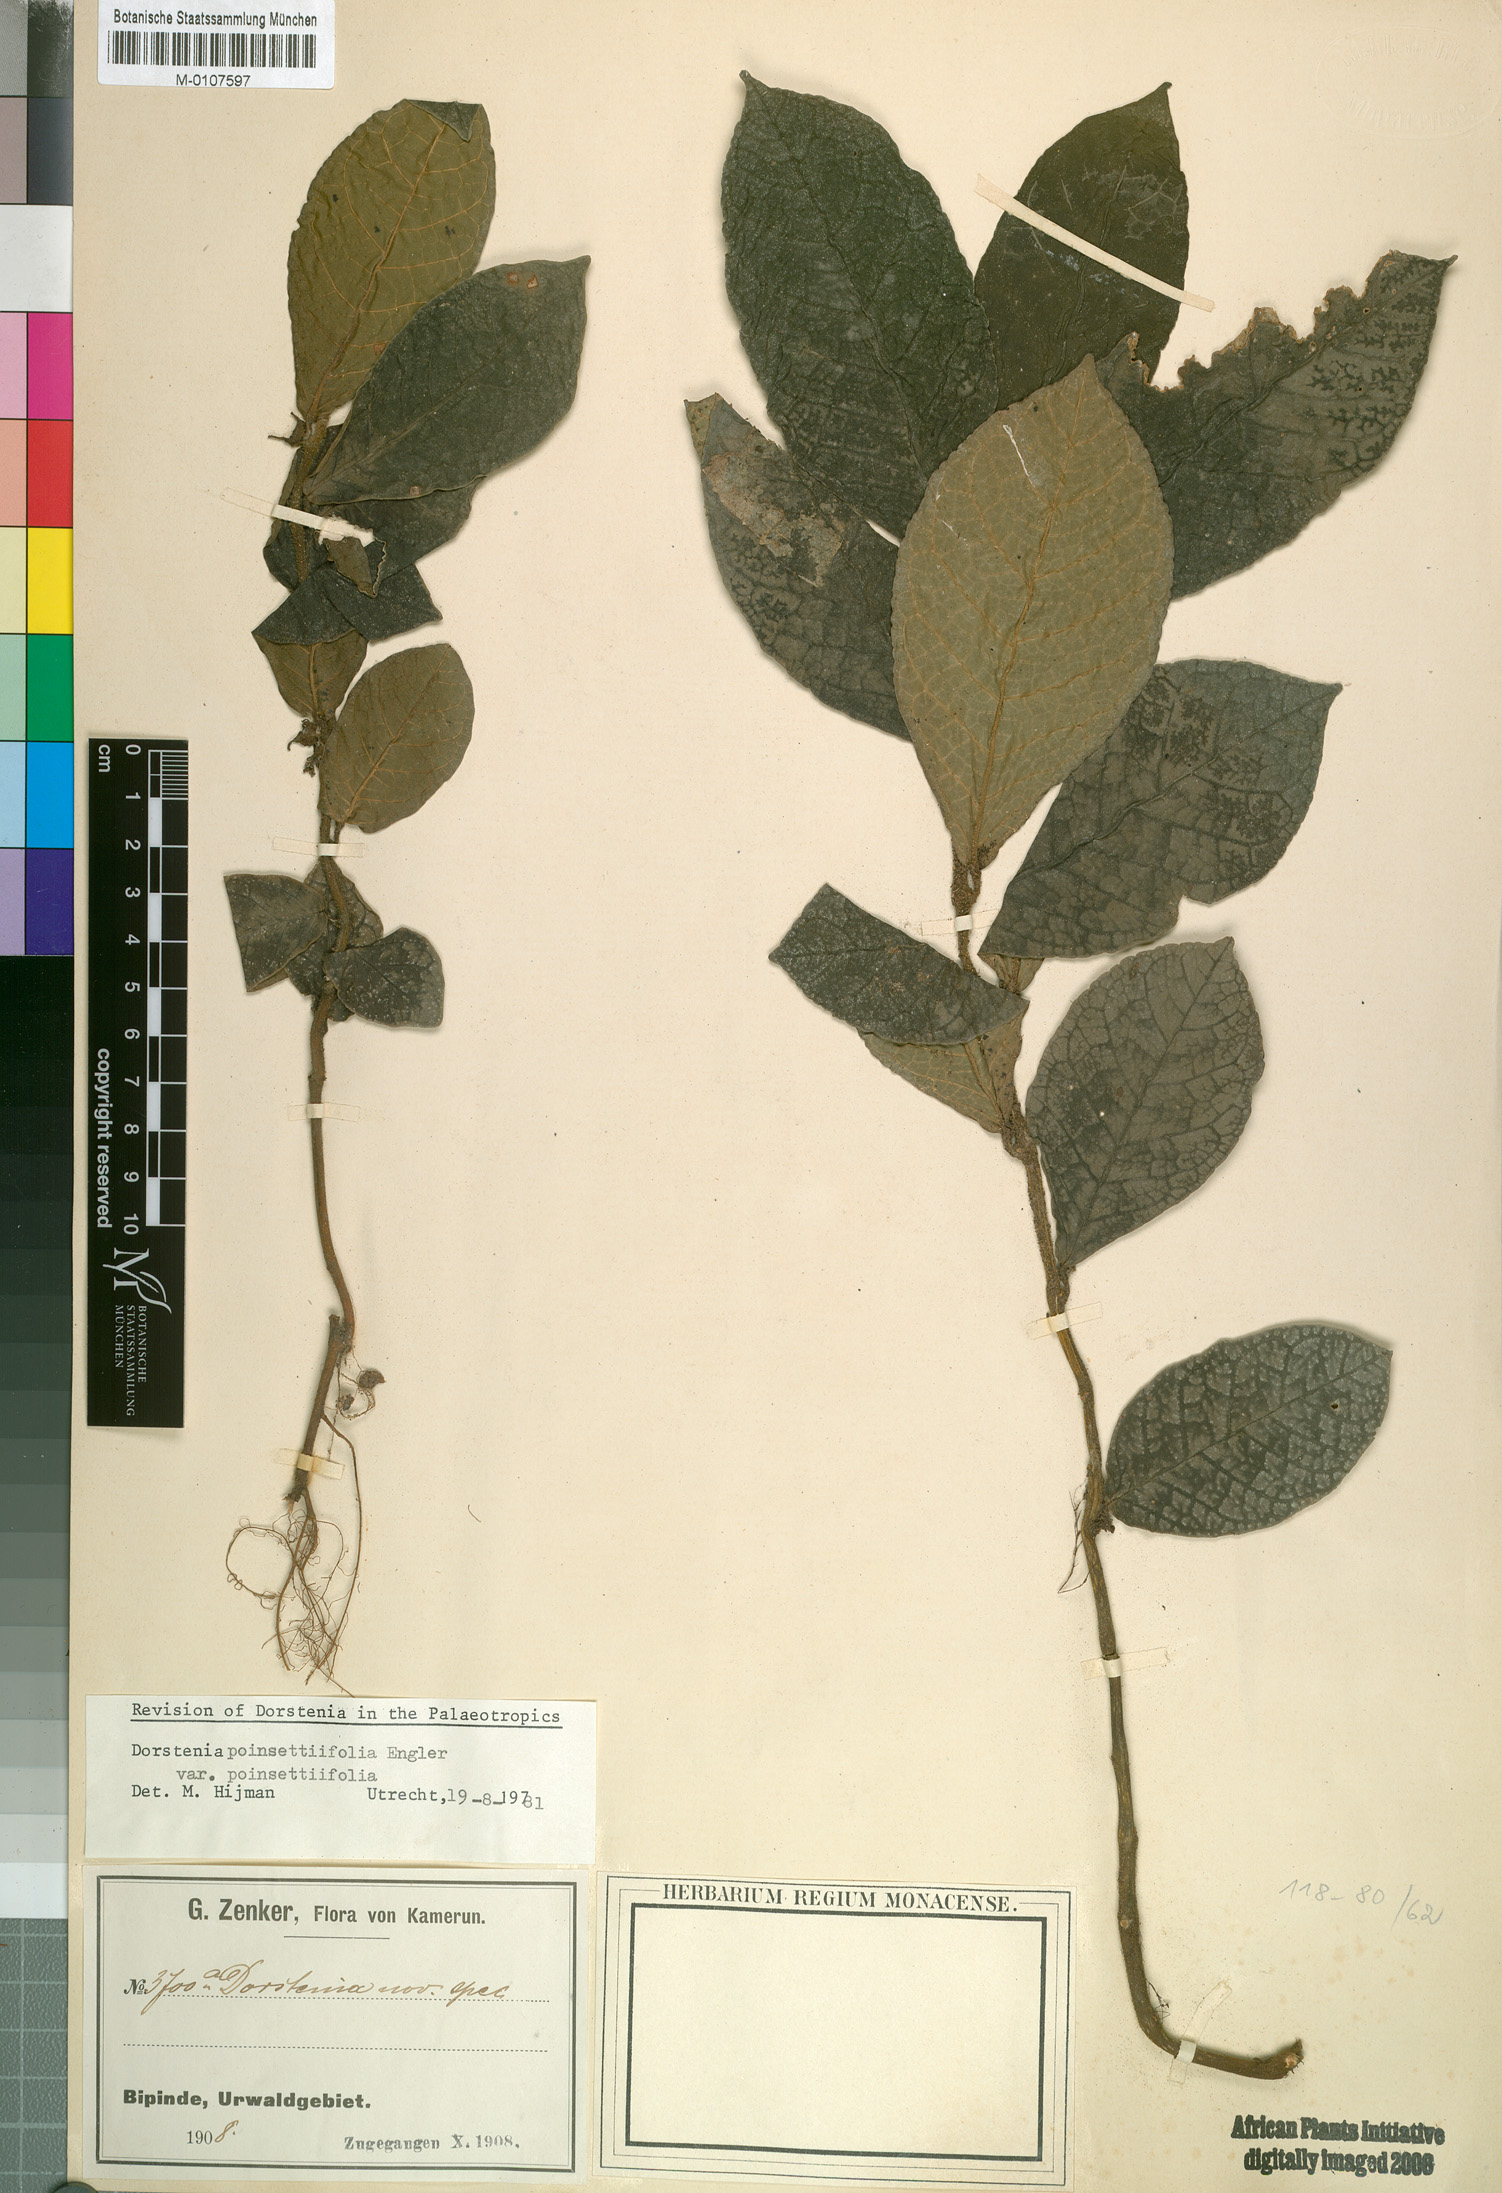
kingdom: Plantae
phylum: Tracheophyta
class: Magnoliopsida
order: Rosales
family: Moraceae
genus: Dorstenia
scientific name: Dorstenia poinsettifolia
